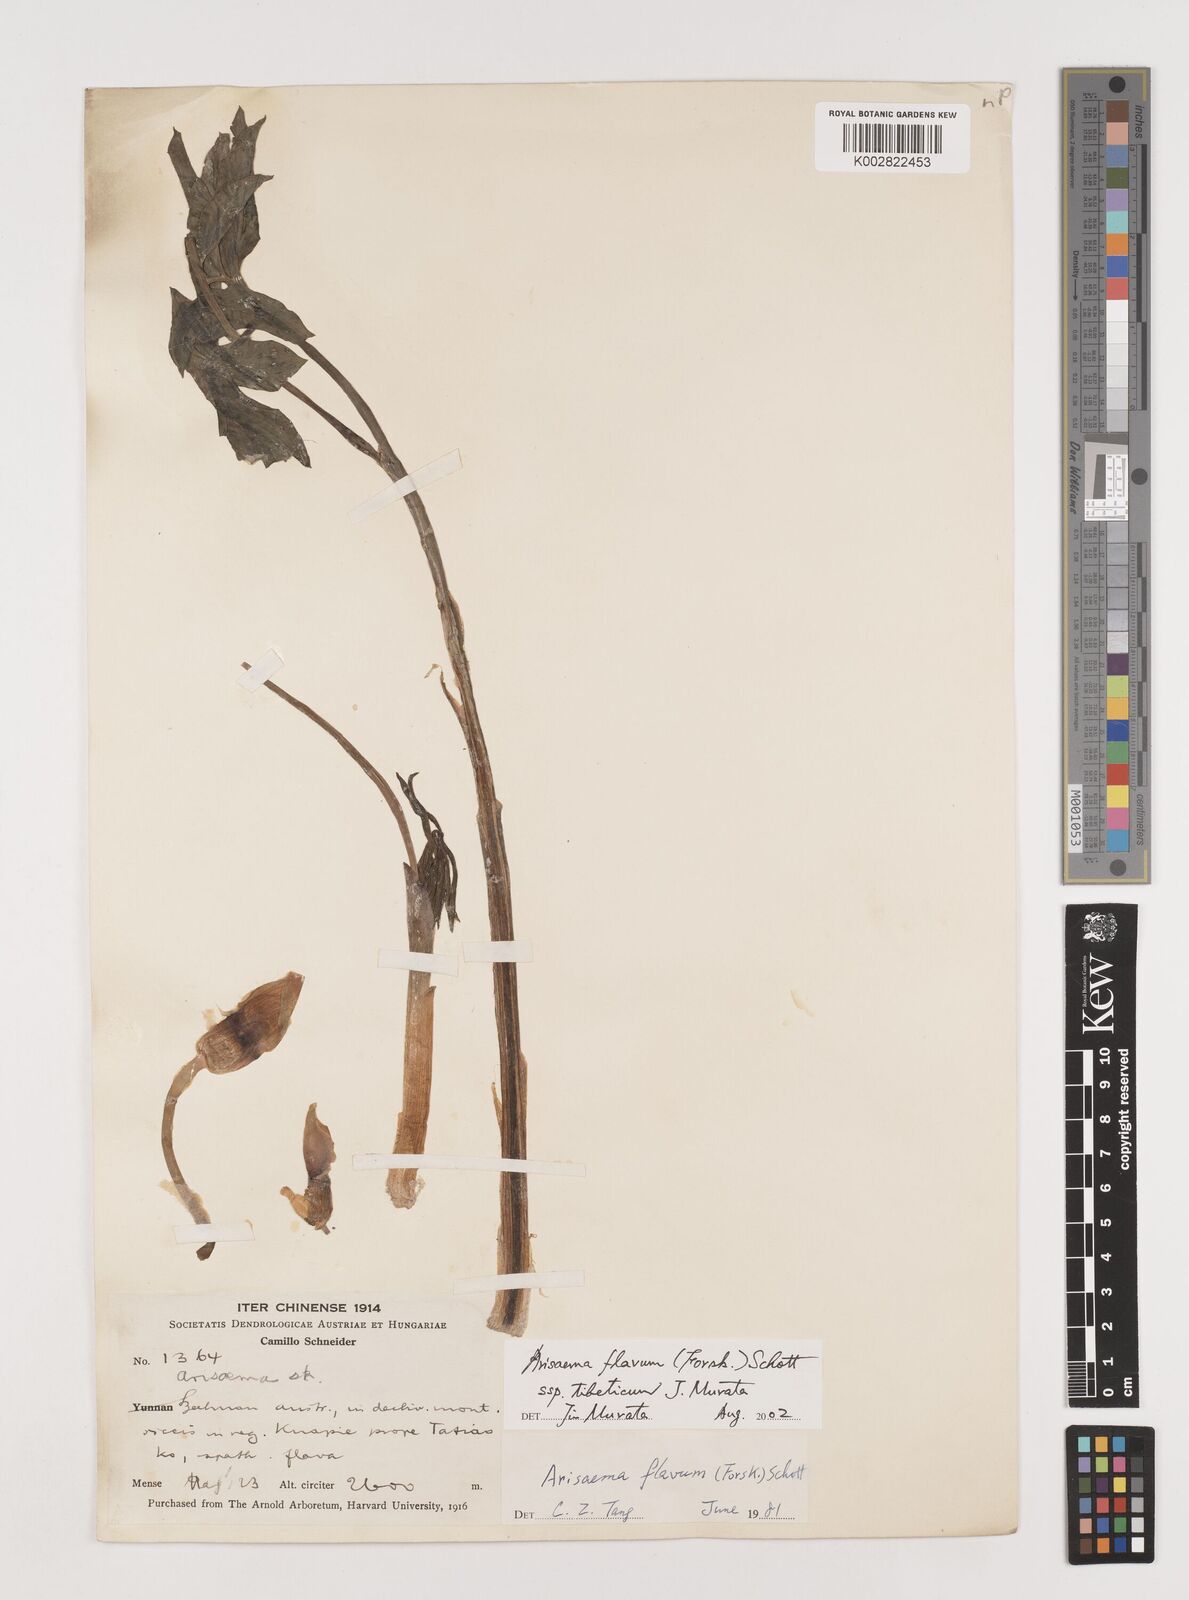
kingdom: Plantae
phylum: Tracheophyta
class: Liliopsida
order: Alismatales
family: Araceae
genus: Arisaema
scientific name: Arisaema flavum
